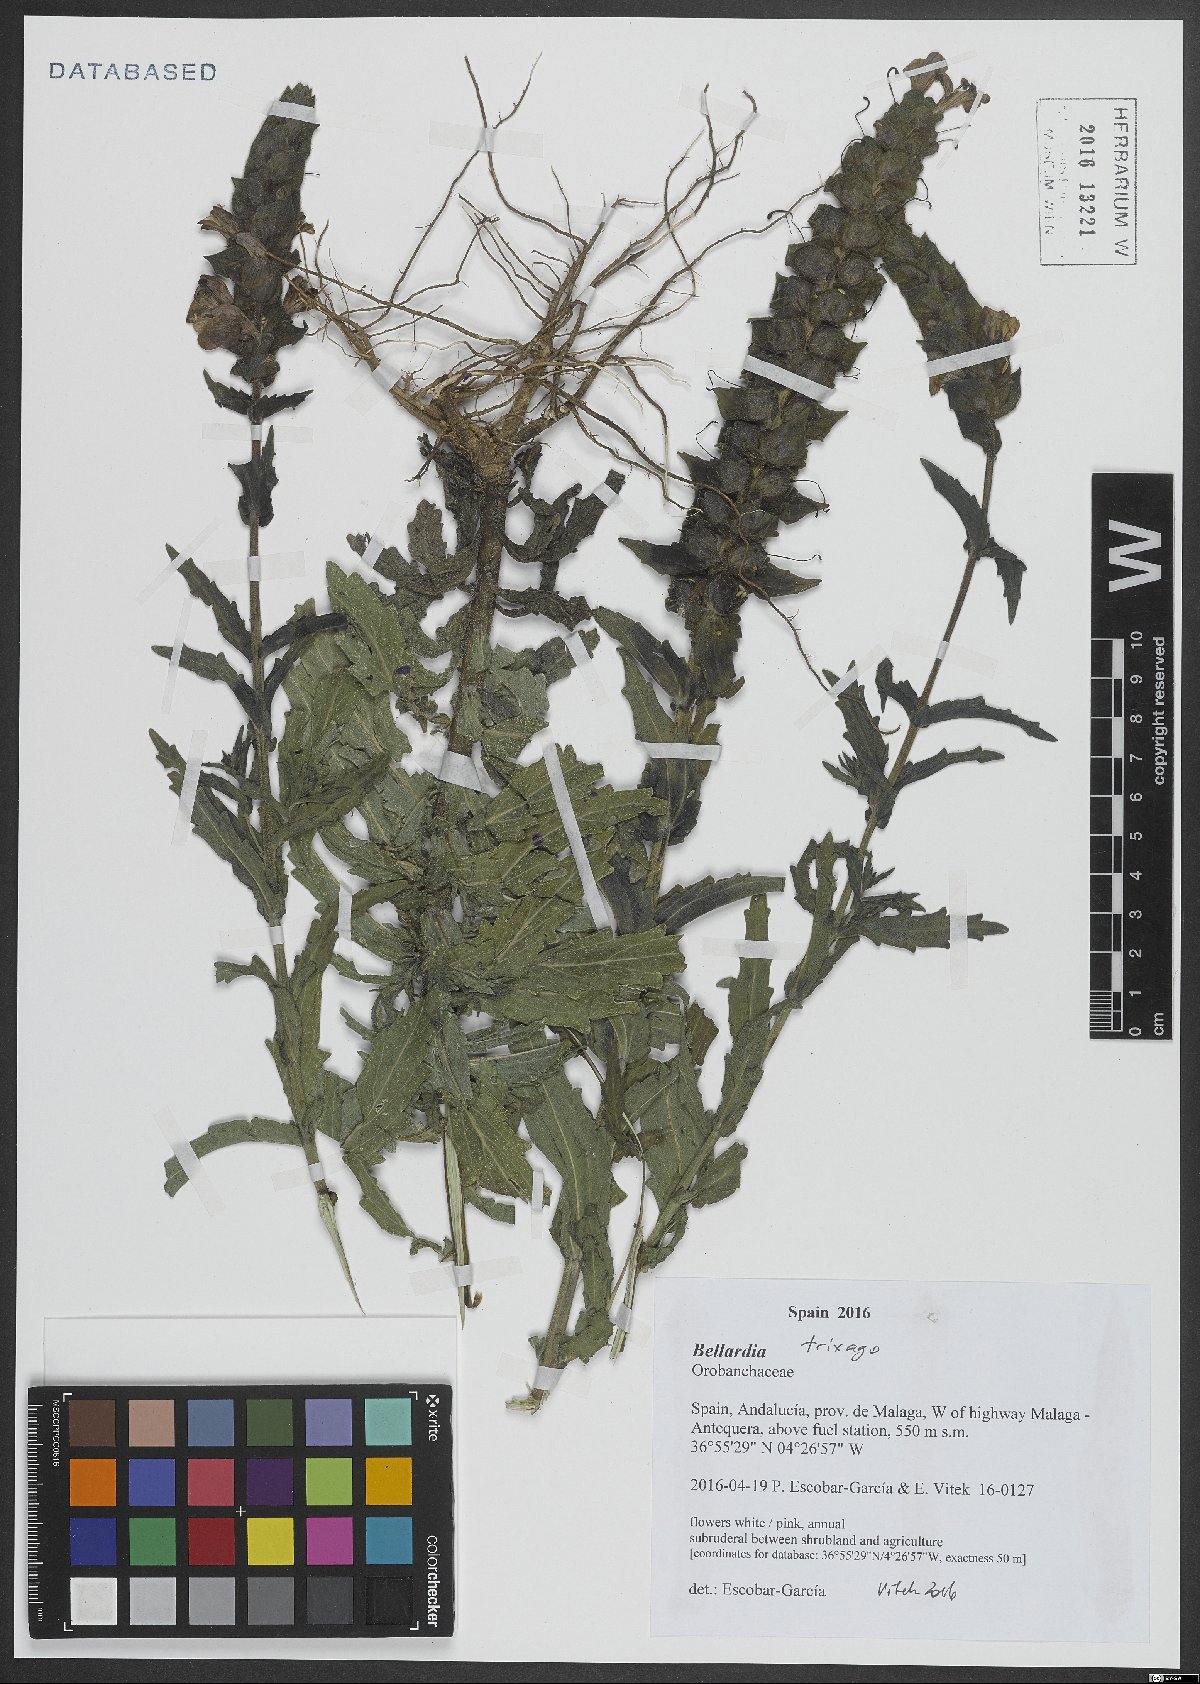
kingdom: Plantae
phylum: Tracheophyta
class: Magnoliopsida
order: Lamiales
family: Orobanchaceae
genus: Bellardia
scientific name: Bellardia trixago
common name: Mediterranean lineseed
